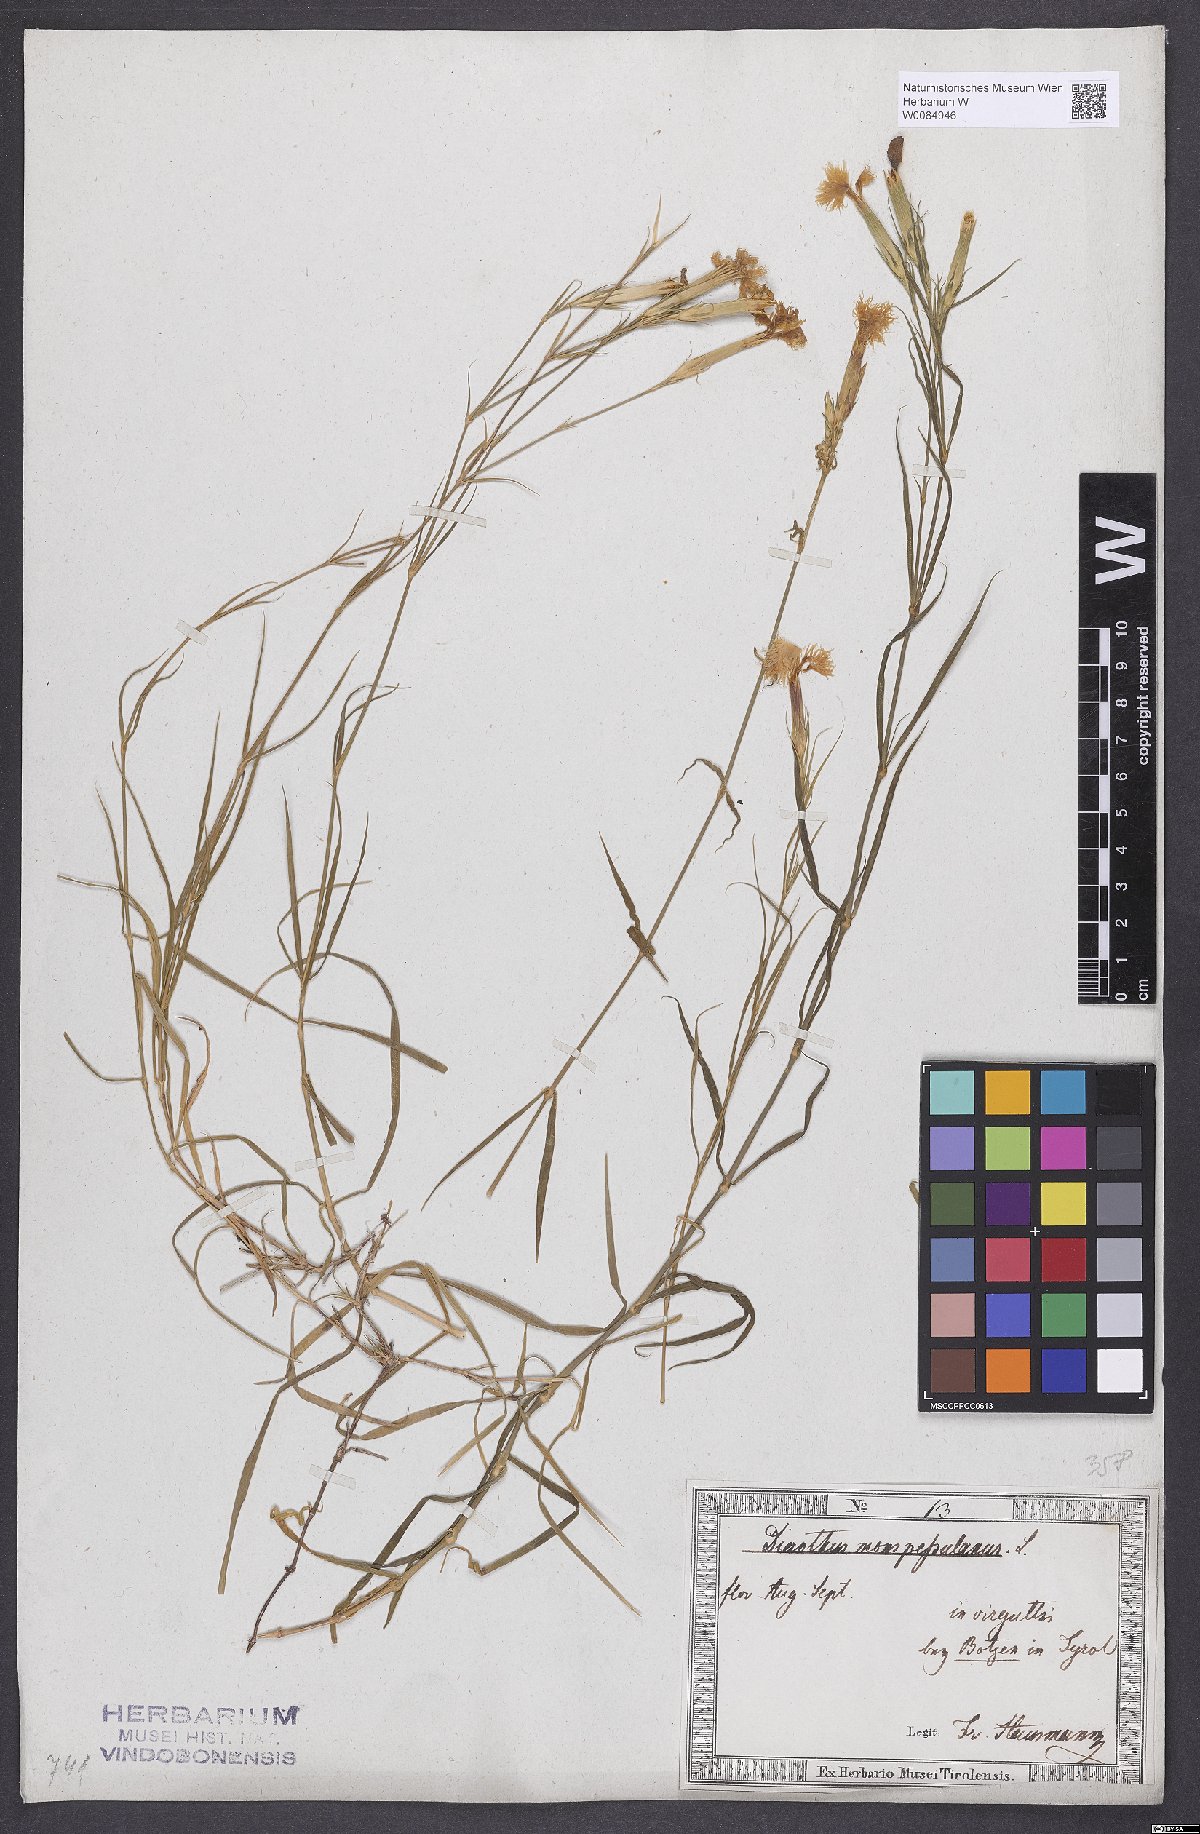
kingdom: Plantae
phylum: Tracheophyta
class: Magnoliopsida
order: Caryophyllales
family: Caryophyllaceae
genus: Dianthus
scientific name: Dianthus hyssopifolius
